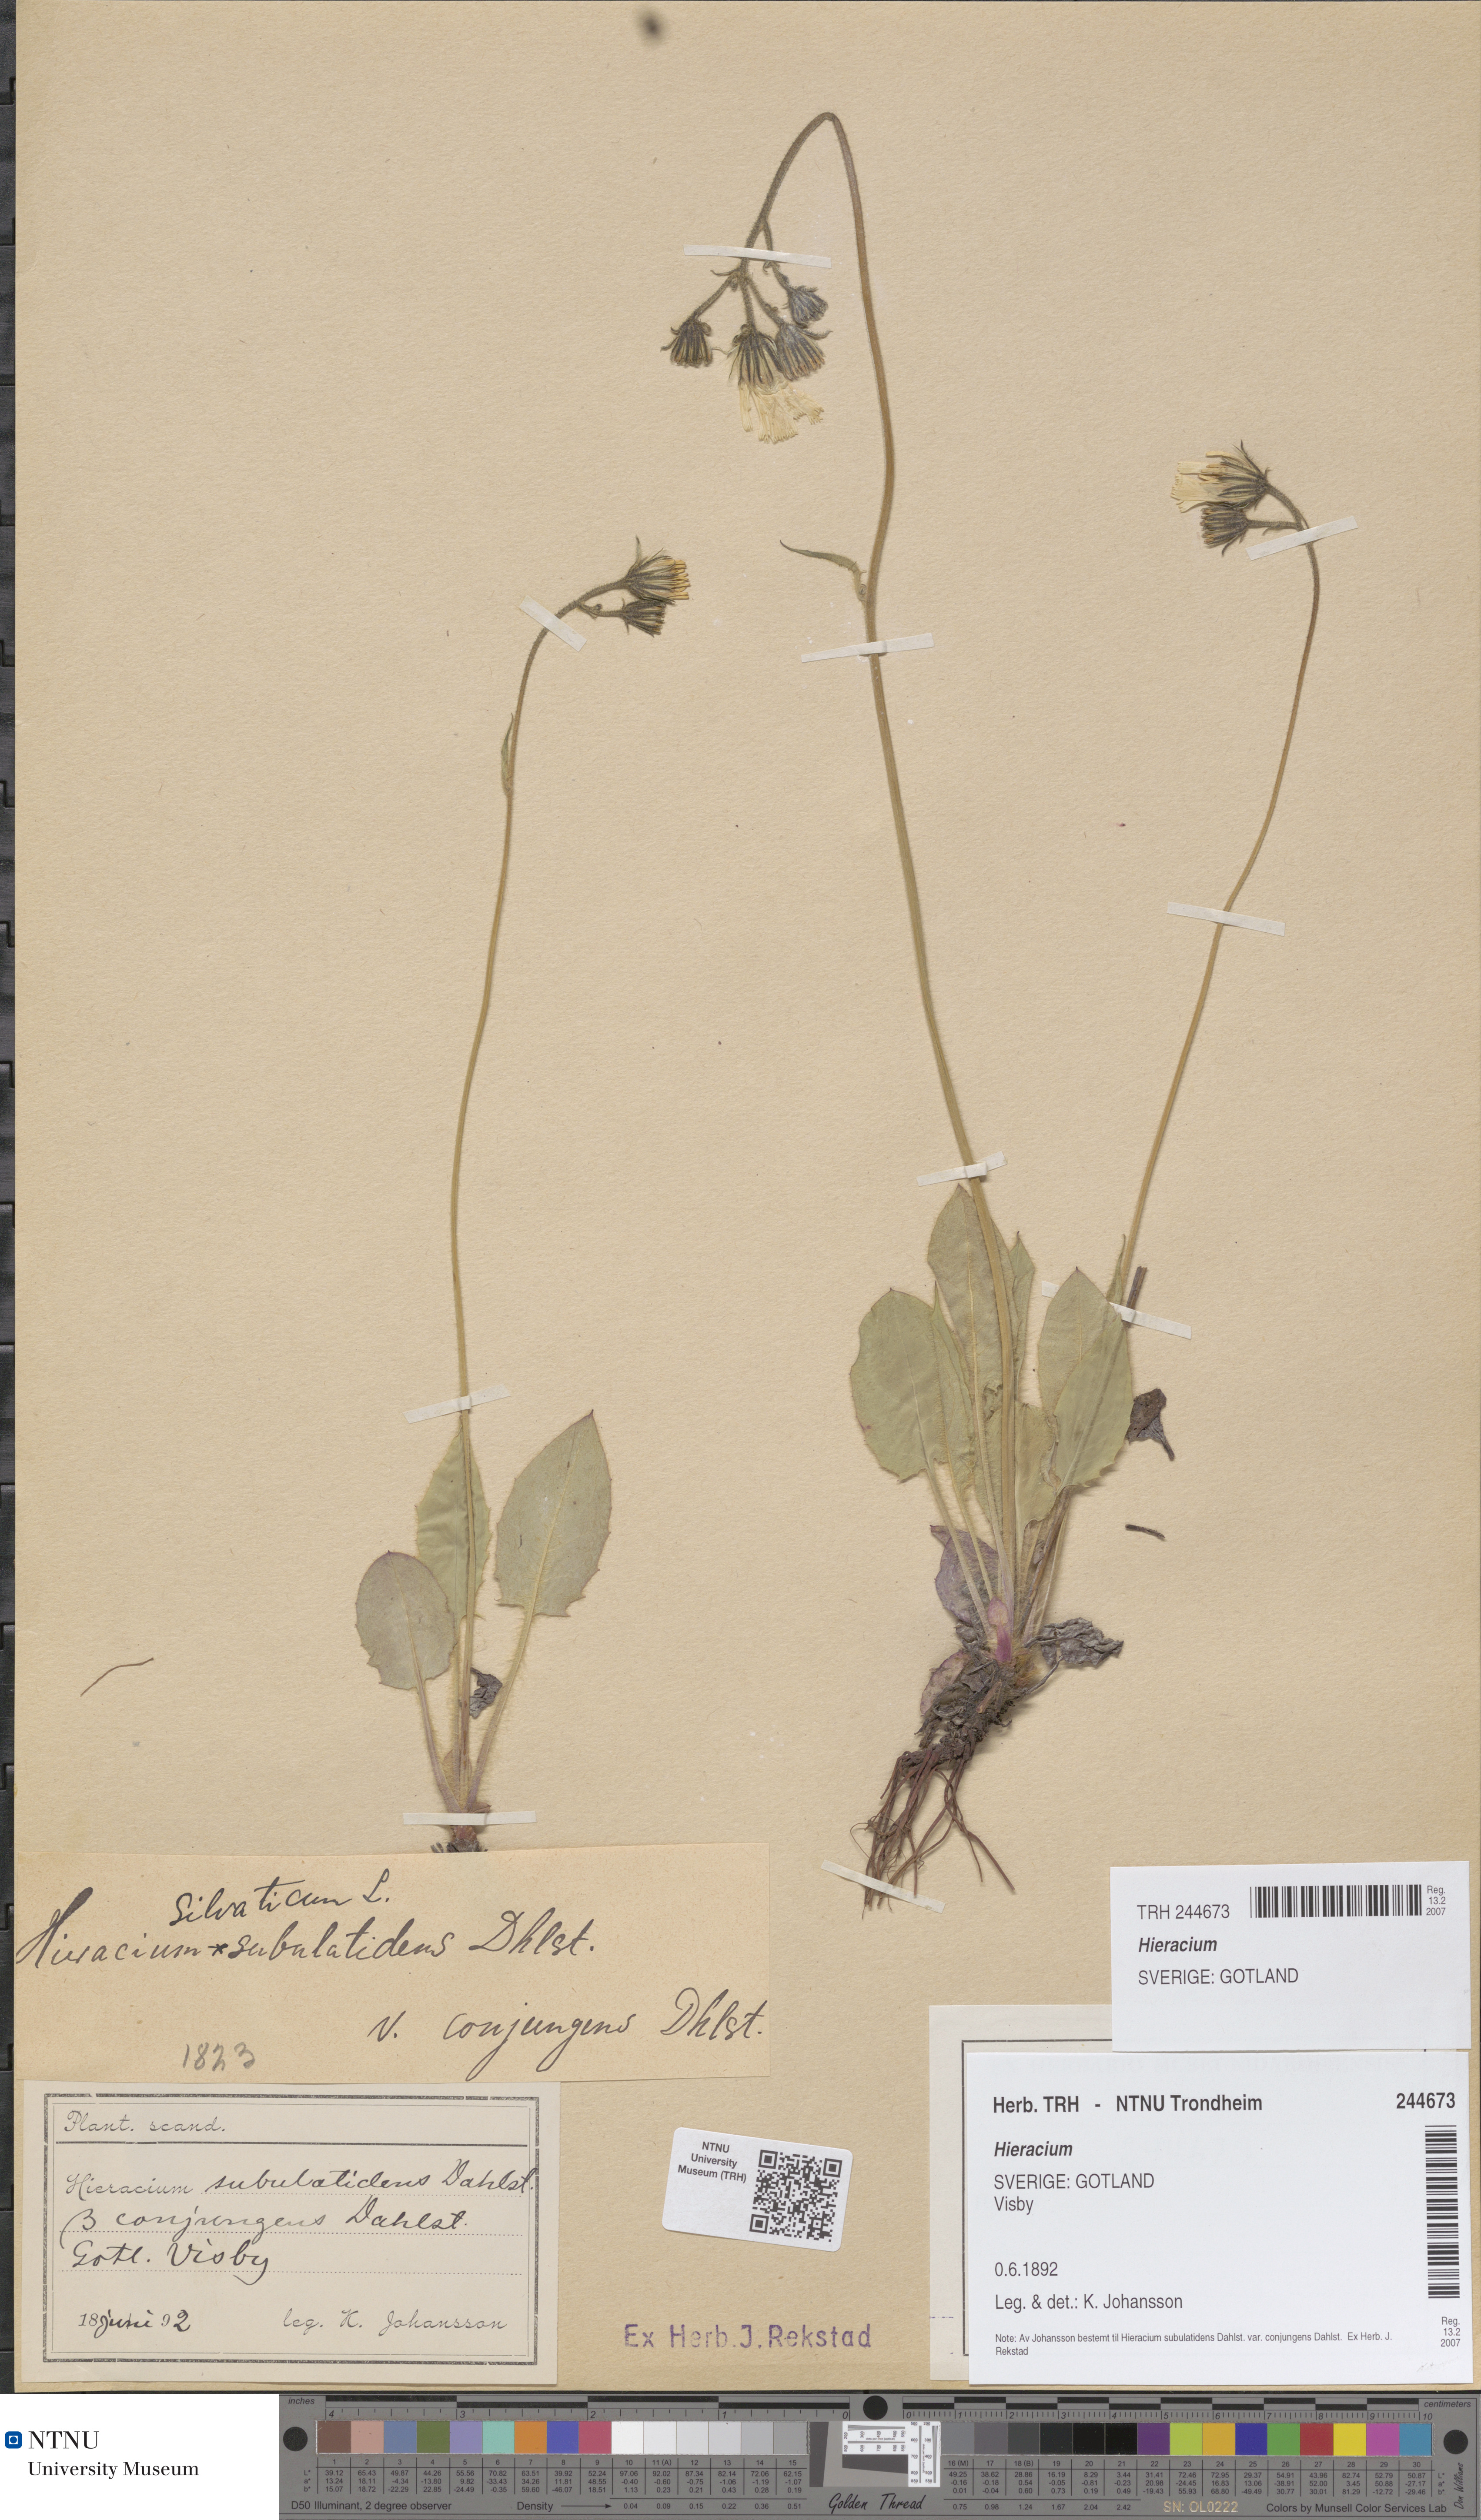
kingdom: Plantae
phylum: Tracheophyta
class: Magnoliopsida
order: Asterales
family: Asteraceae
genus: Hieracium
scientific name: Hieracium
